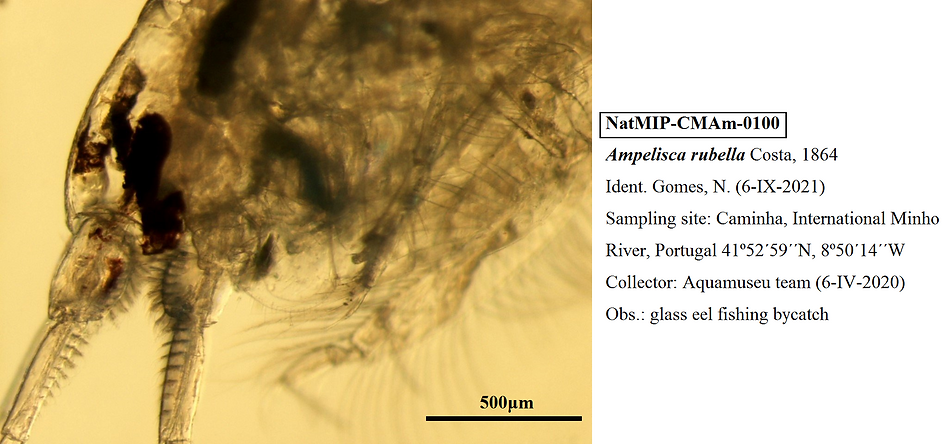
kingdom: Animalia
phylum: Arthropoda
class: Malacostraca
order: Amphipoda
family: Ampeliscidae
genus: Ampelisca
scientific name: Ampelisca rubella
